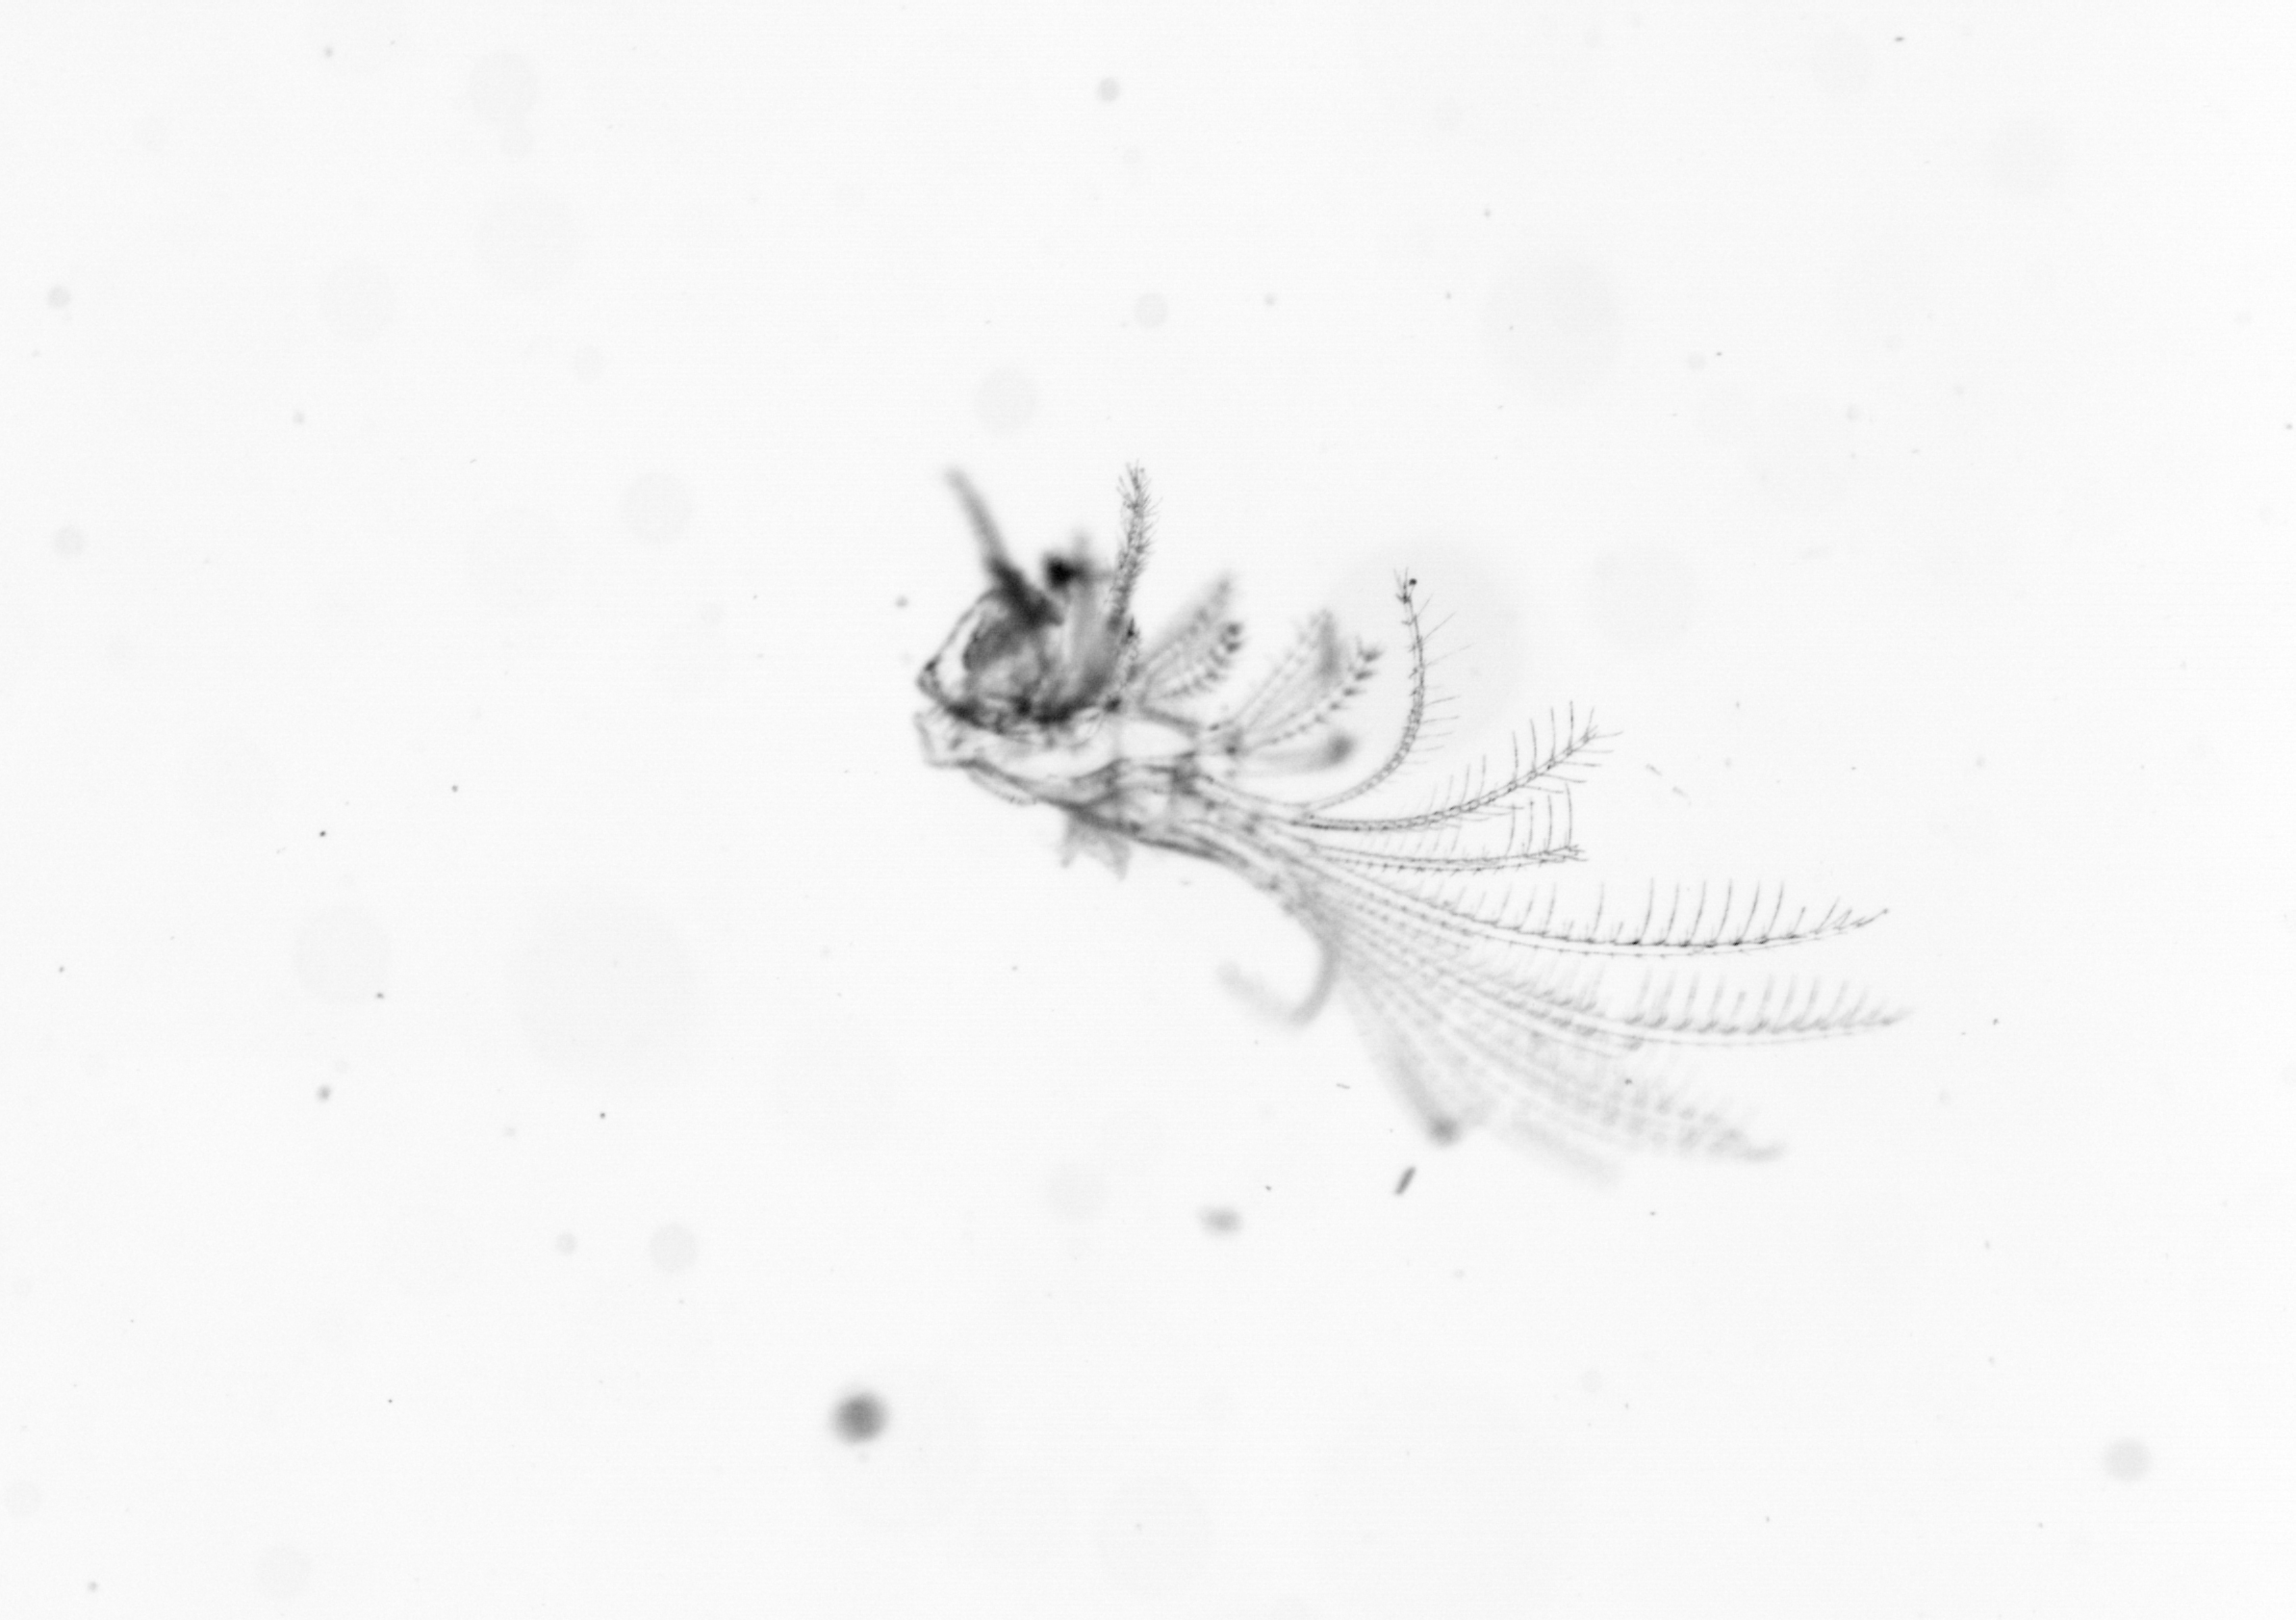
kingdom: Animalia
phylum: Arthropoda
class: Maxillopoda
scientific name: Maxillopoda
